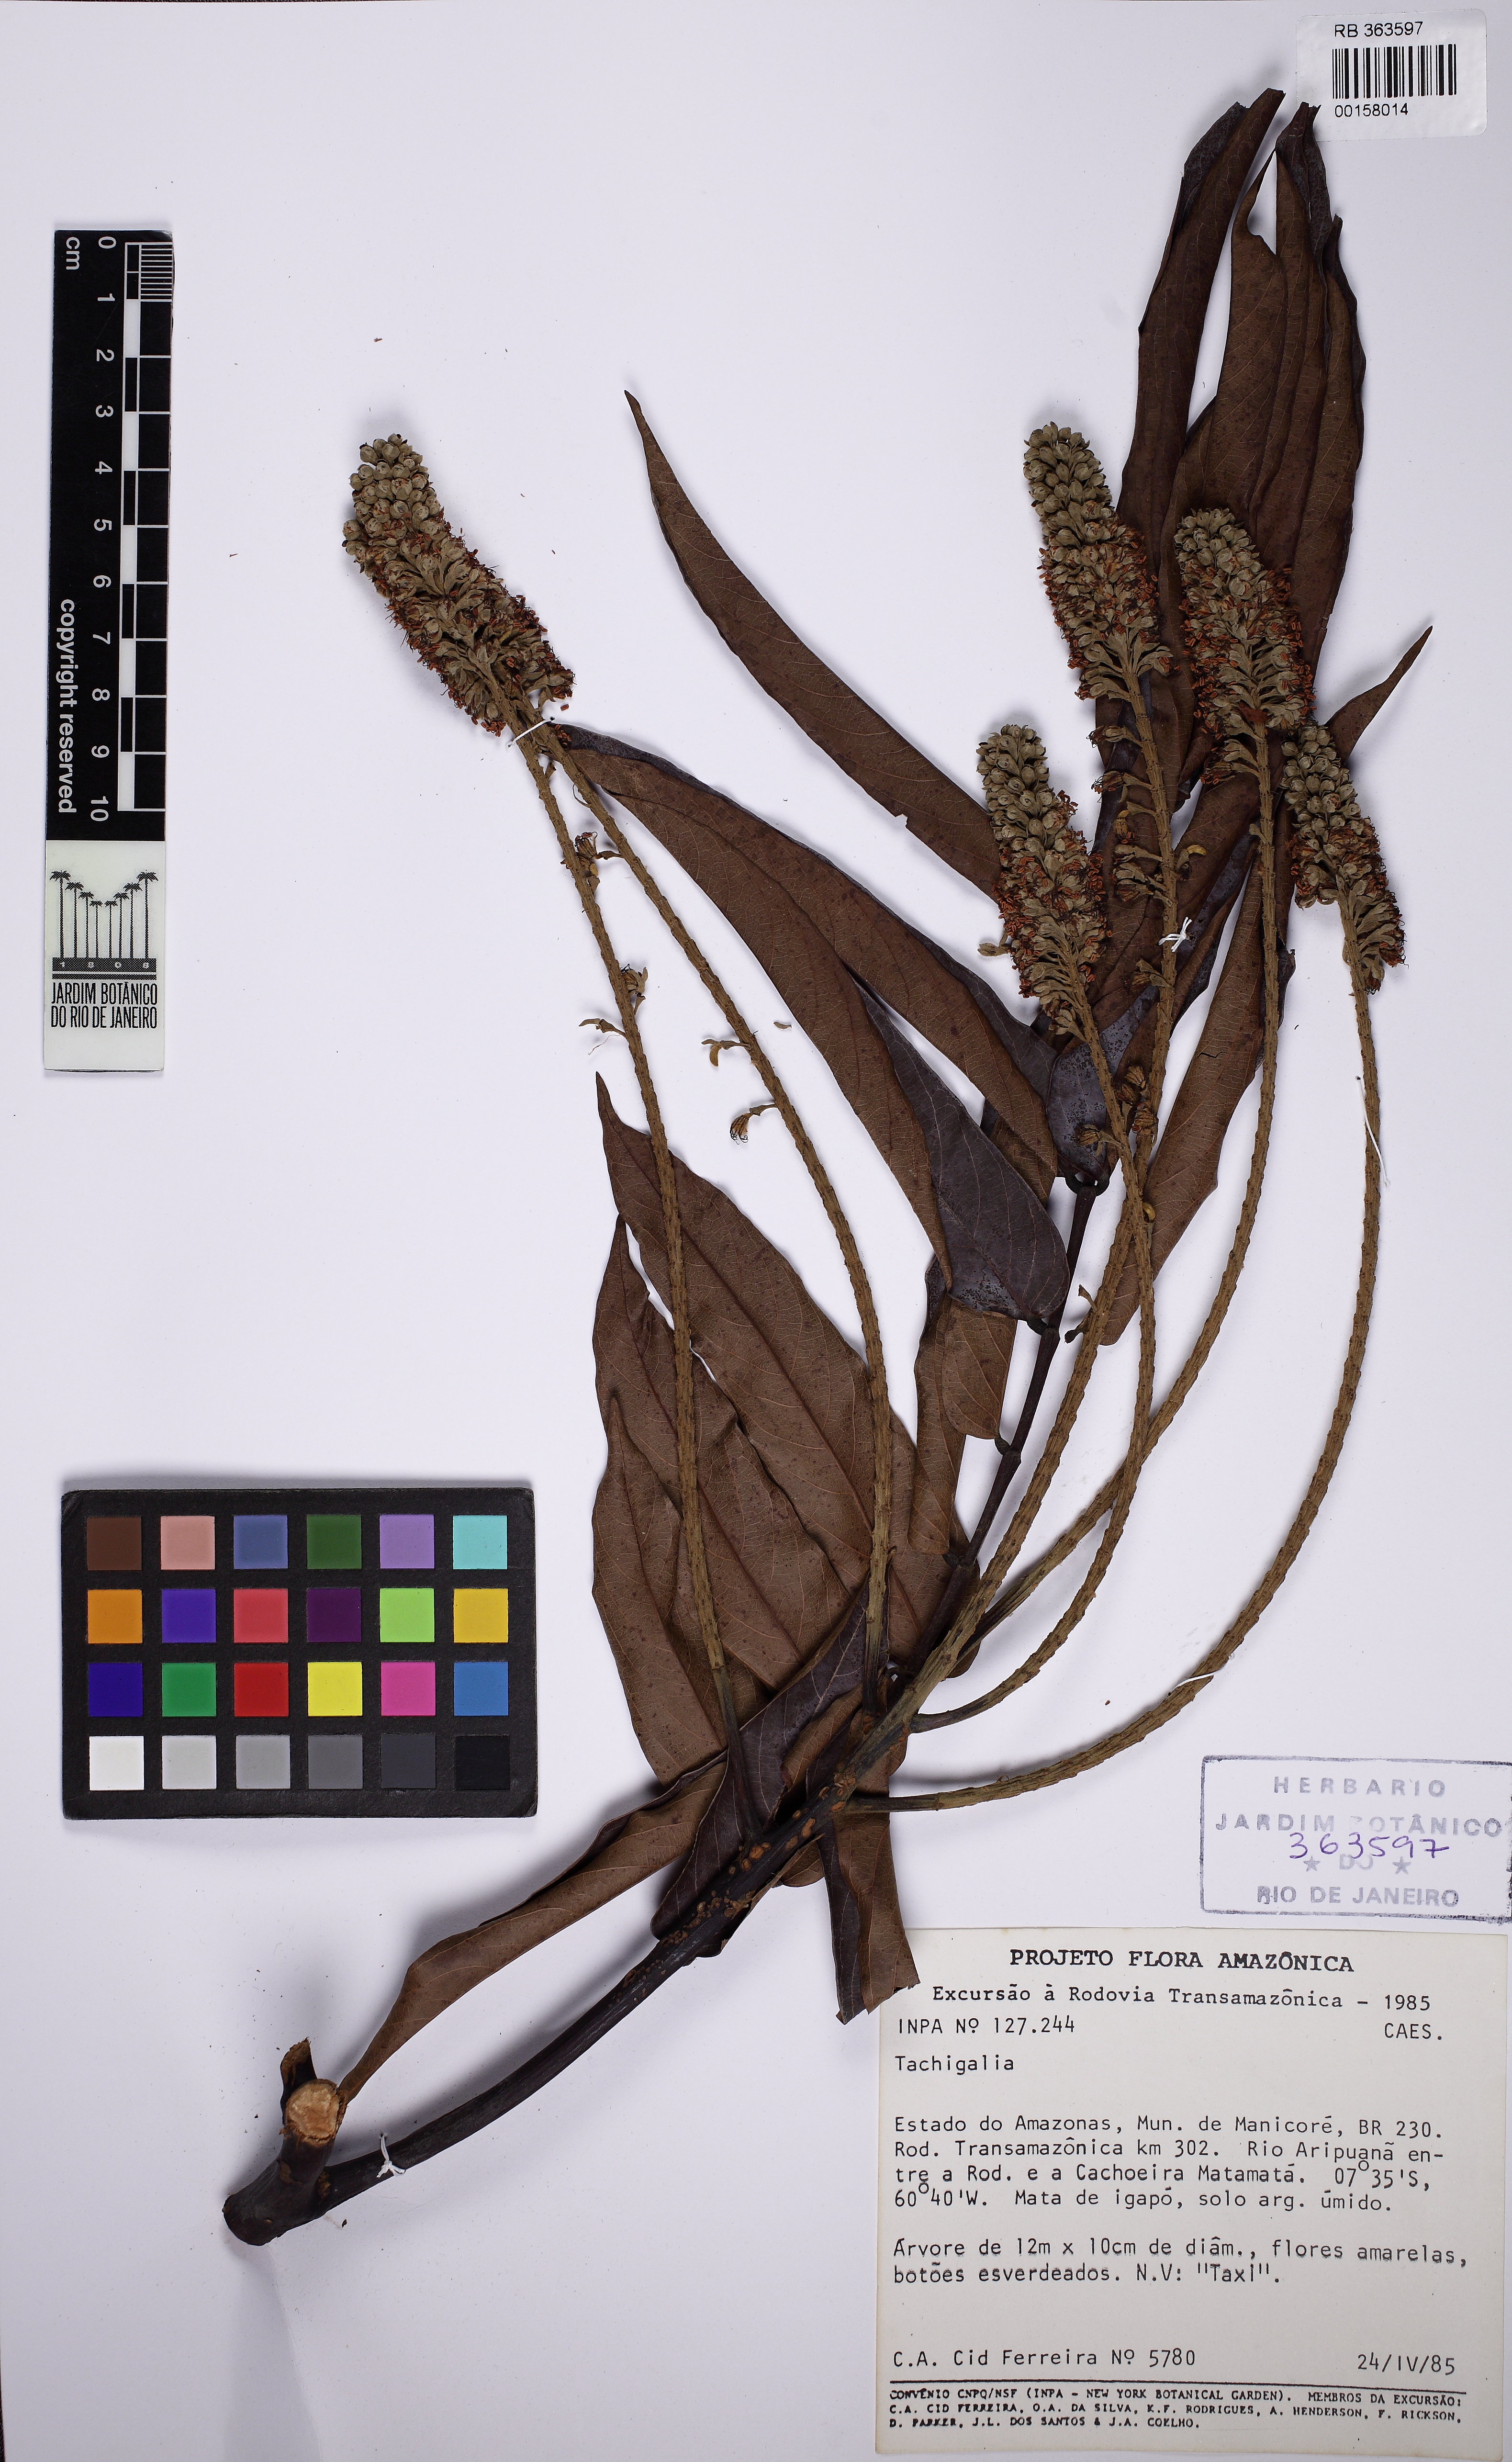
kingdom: Plantae
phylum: Tracheophyta
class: Magnoliopsida
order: Fabales
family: Fabaceae
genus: Tachigali
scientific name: Tachigali candelabrum
